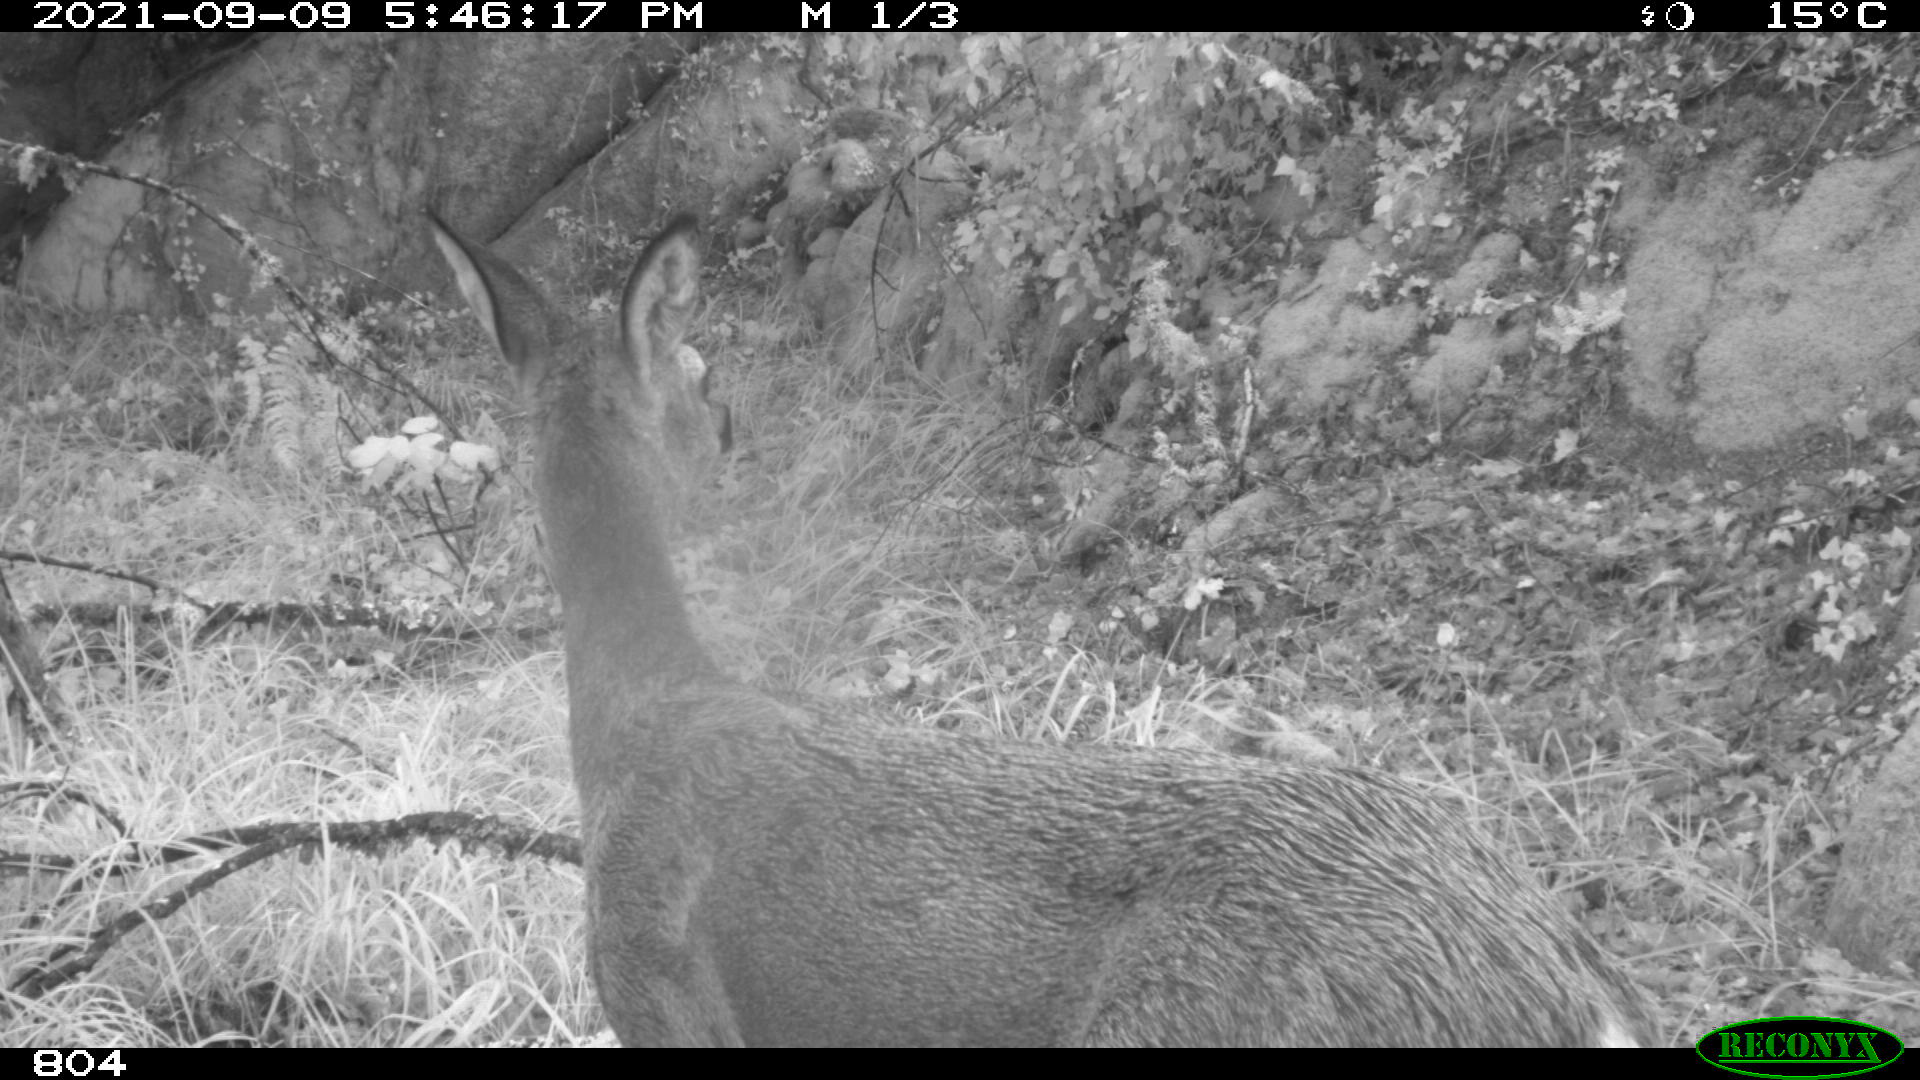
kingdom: Animalia
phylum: Chordata
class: Mammalia
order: Artiodactyla
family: Cervidae
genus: Capreolus
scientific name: Capreolus capreolus
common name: Western roe deer
